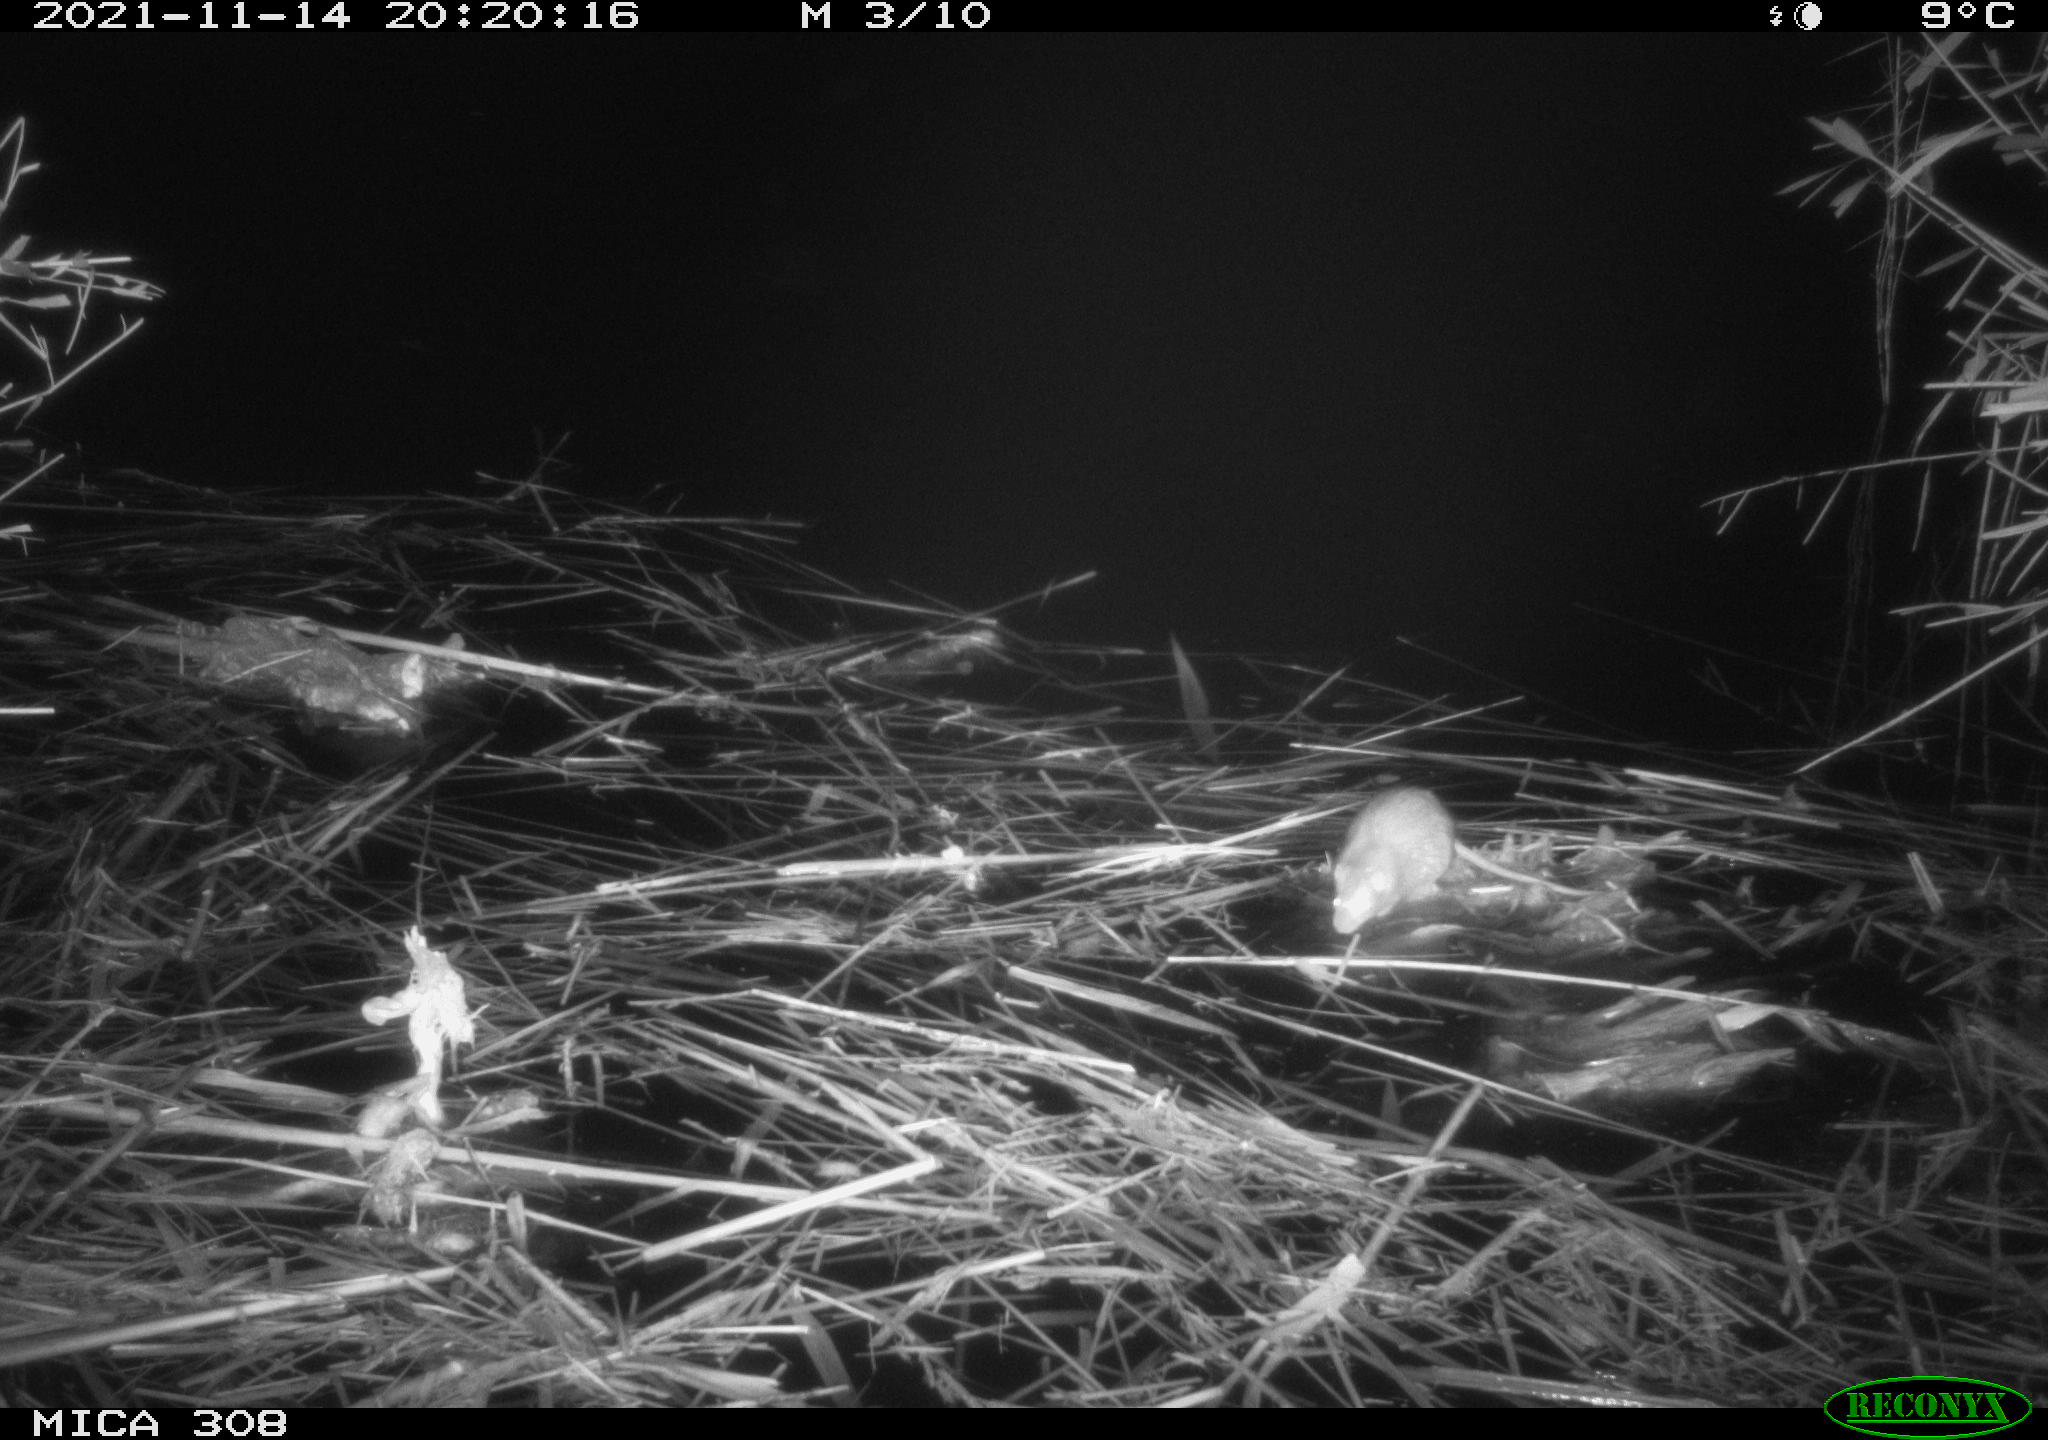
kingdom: Animalia
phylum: Chordata
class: Mammalia
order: Rodentia
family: Muridae
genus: Rattus
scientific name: Rattus norvegicus
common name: Brown rat
